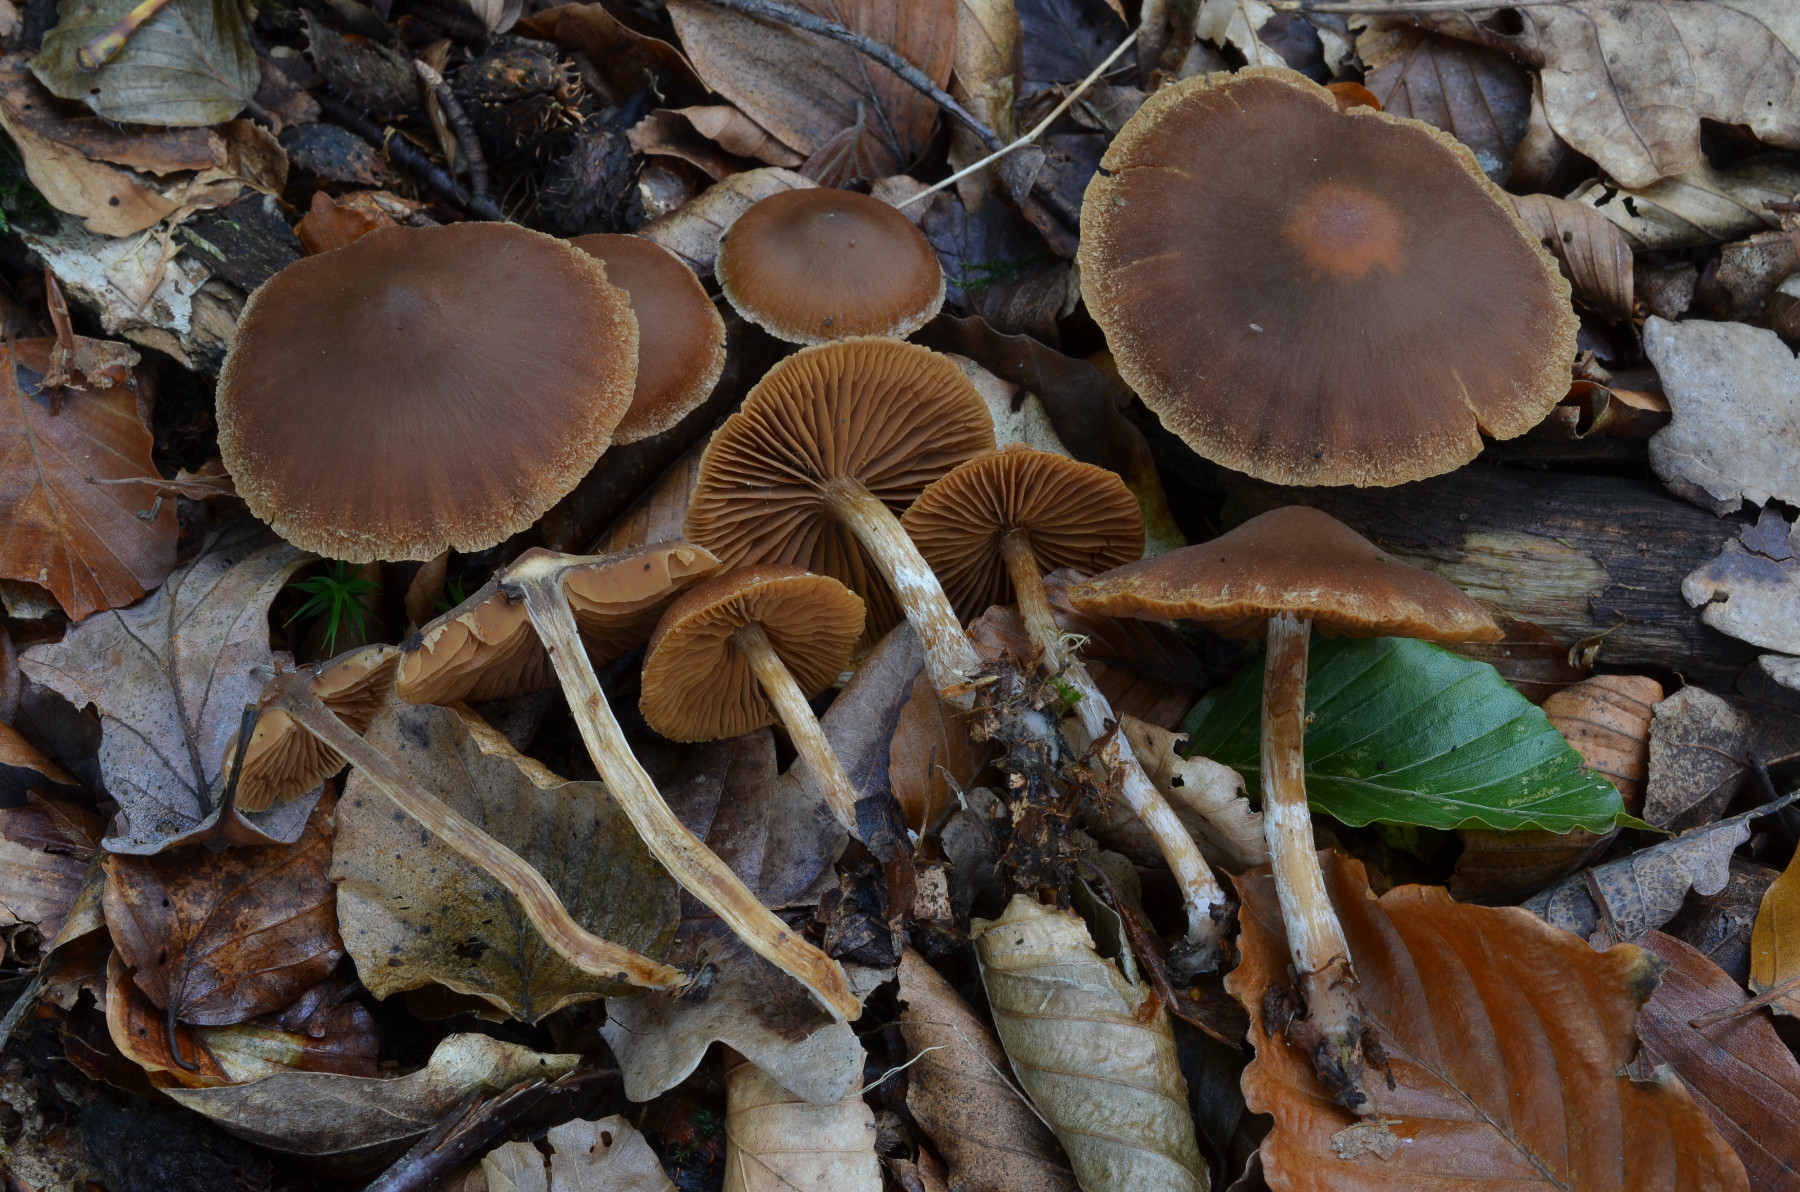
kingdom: Fungi
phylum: Basidiomycota
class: Agaricomycetes
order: Agaricales
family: Cortinariaceae
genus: Cortinarius
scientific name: Cortinarius flabellus
